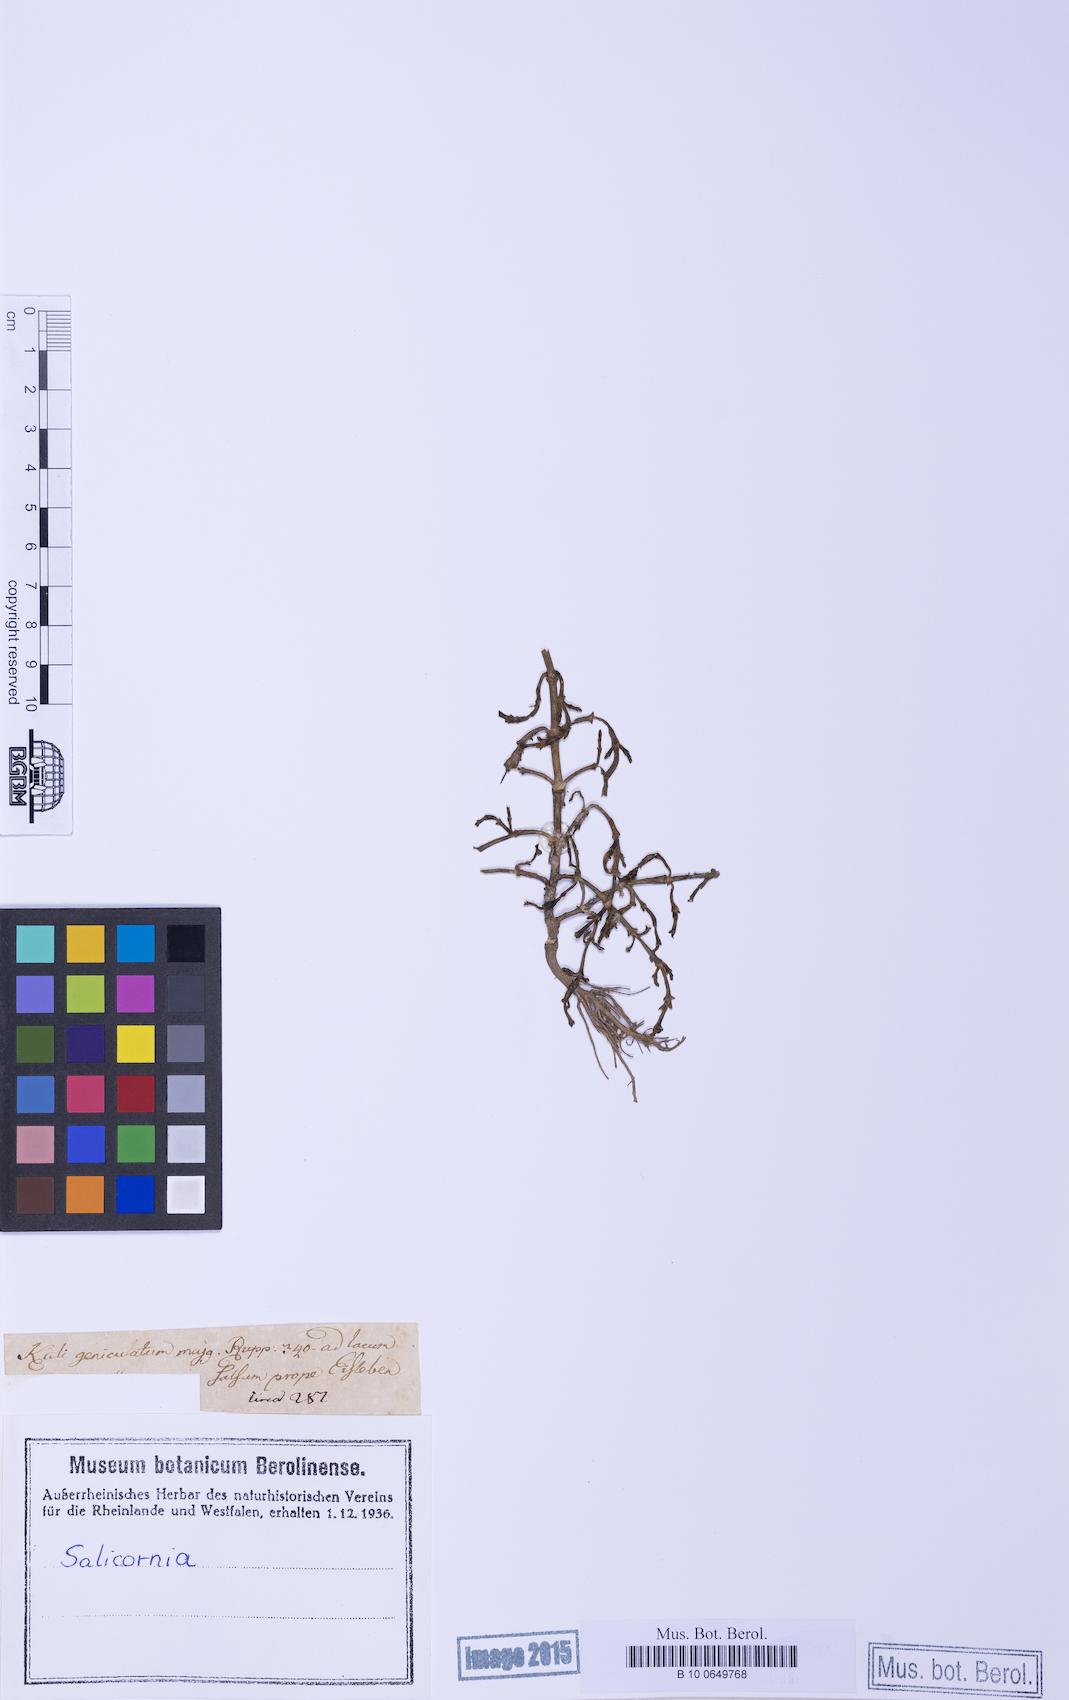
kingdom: Plantae
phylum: Tracheophyta
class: Magnoliopsida
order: Caryophyllales
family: Amaranthaceae
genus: Salicornia
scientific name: Salicornia europaea
